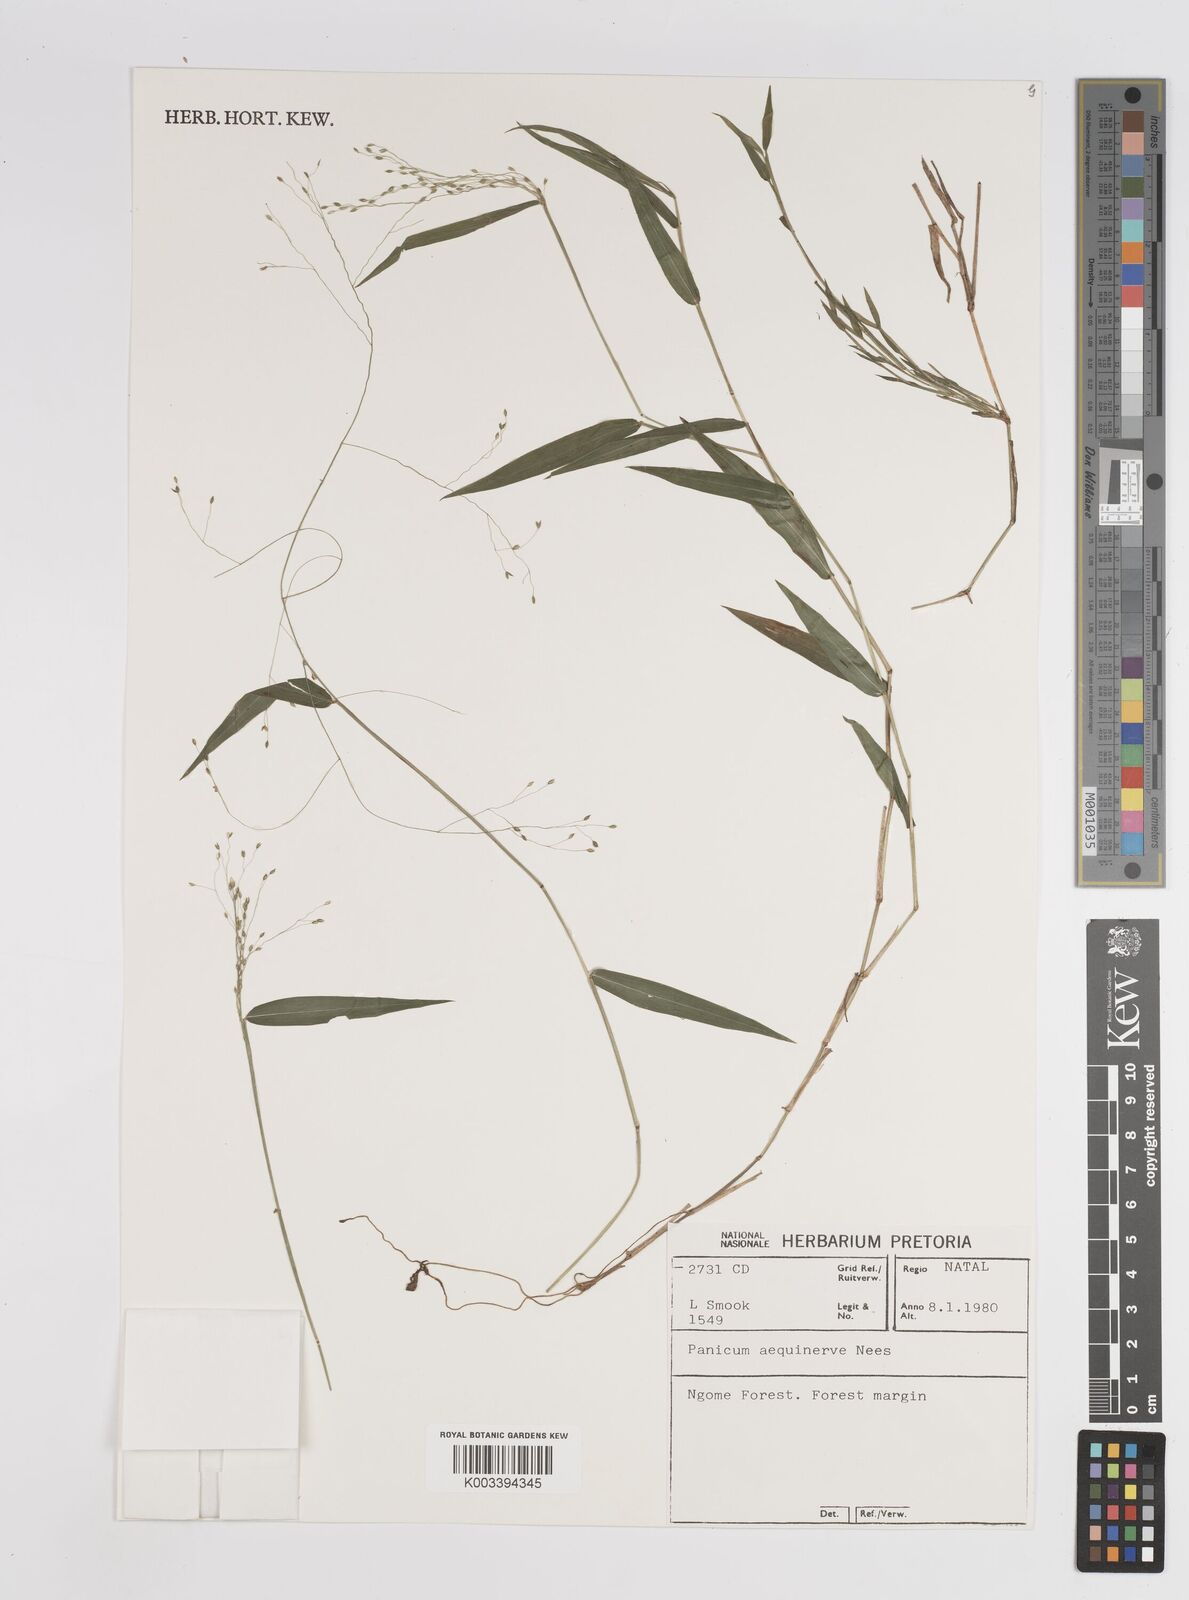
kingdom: Plantae
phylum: Tracheophyta
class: Liliopsida
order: Poales
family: Poaceae
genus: Panicum
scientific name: Panicum aequinerve
